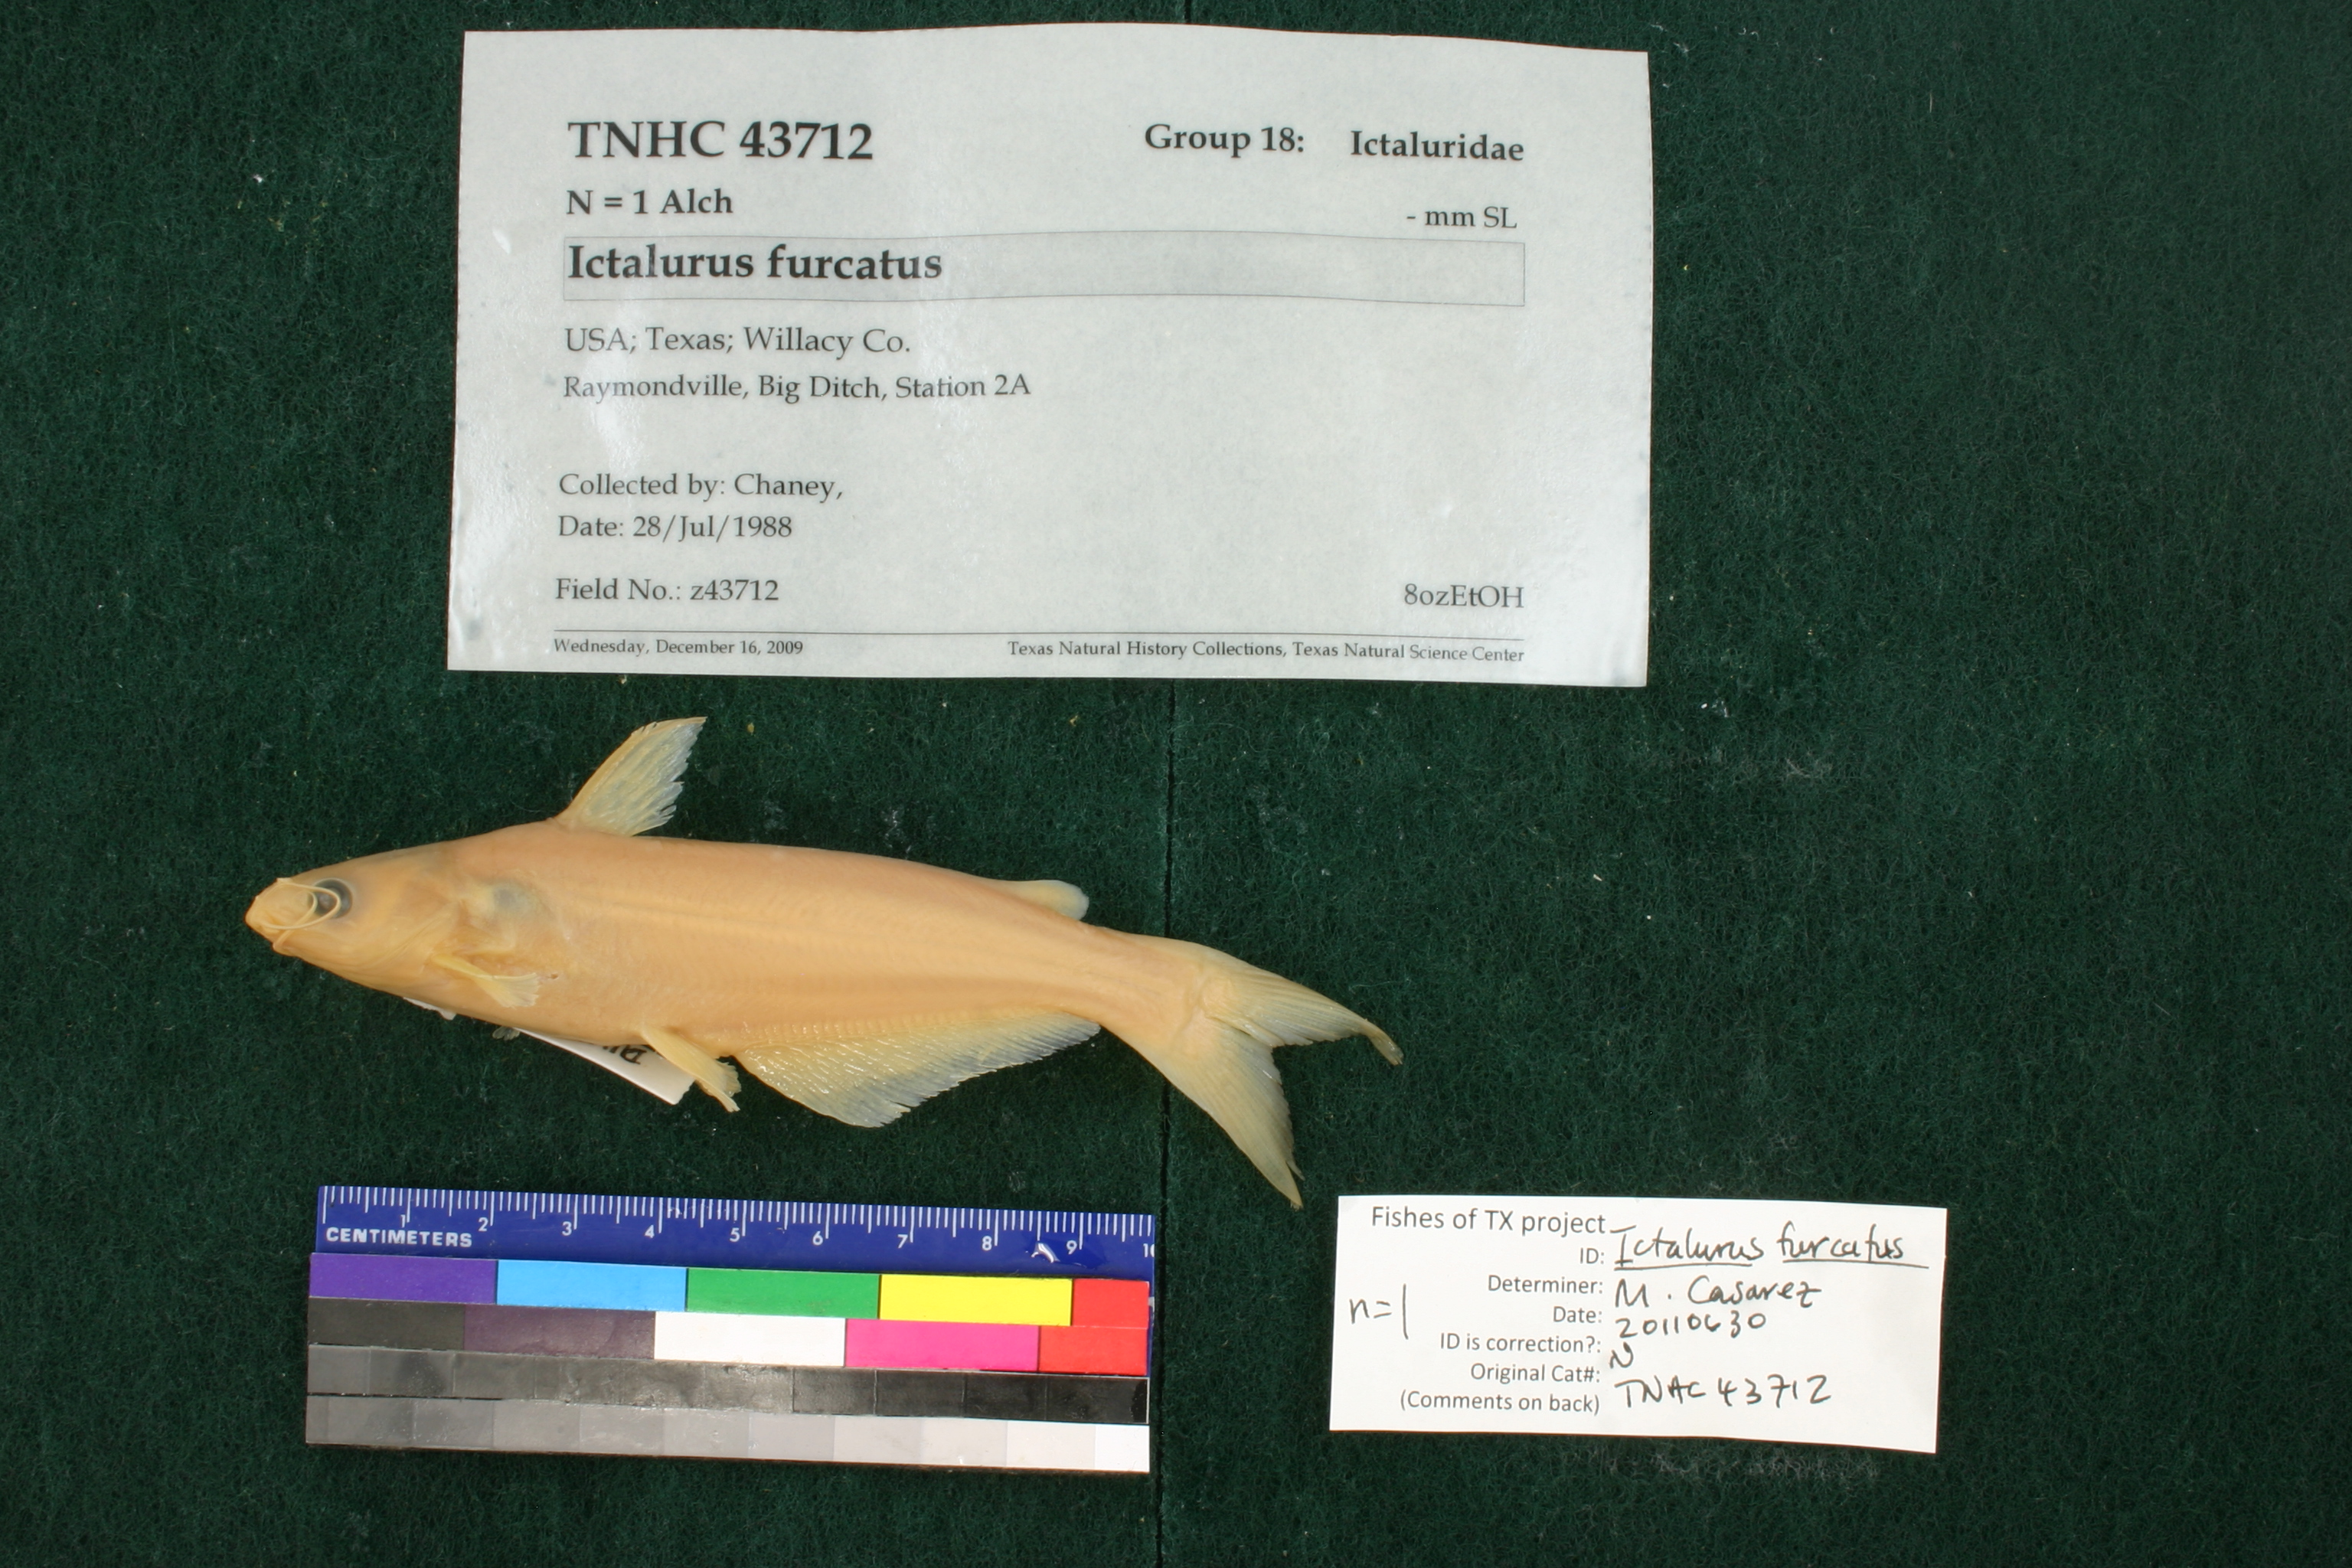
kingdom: Animalia
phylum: Chordata
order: Siluriformes
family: Ictaluridae
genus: Ictalurus
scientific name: Ictalurus furcatus
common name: Blue catfish
